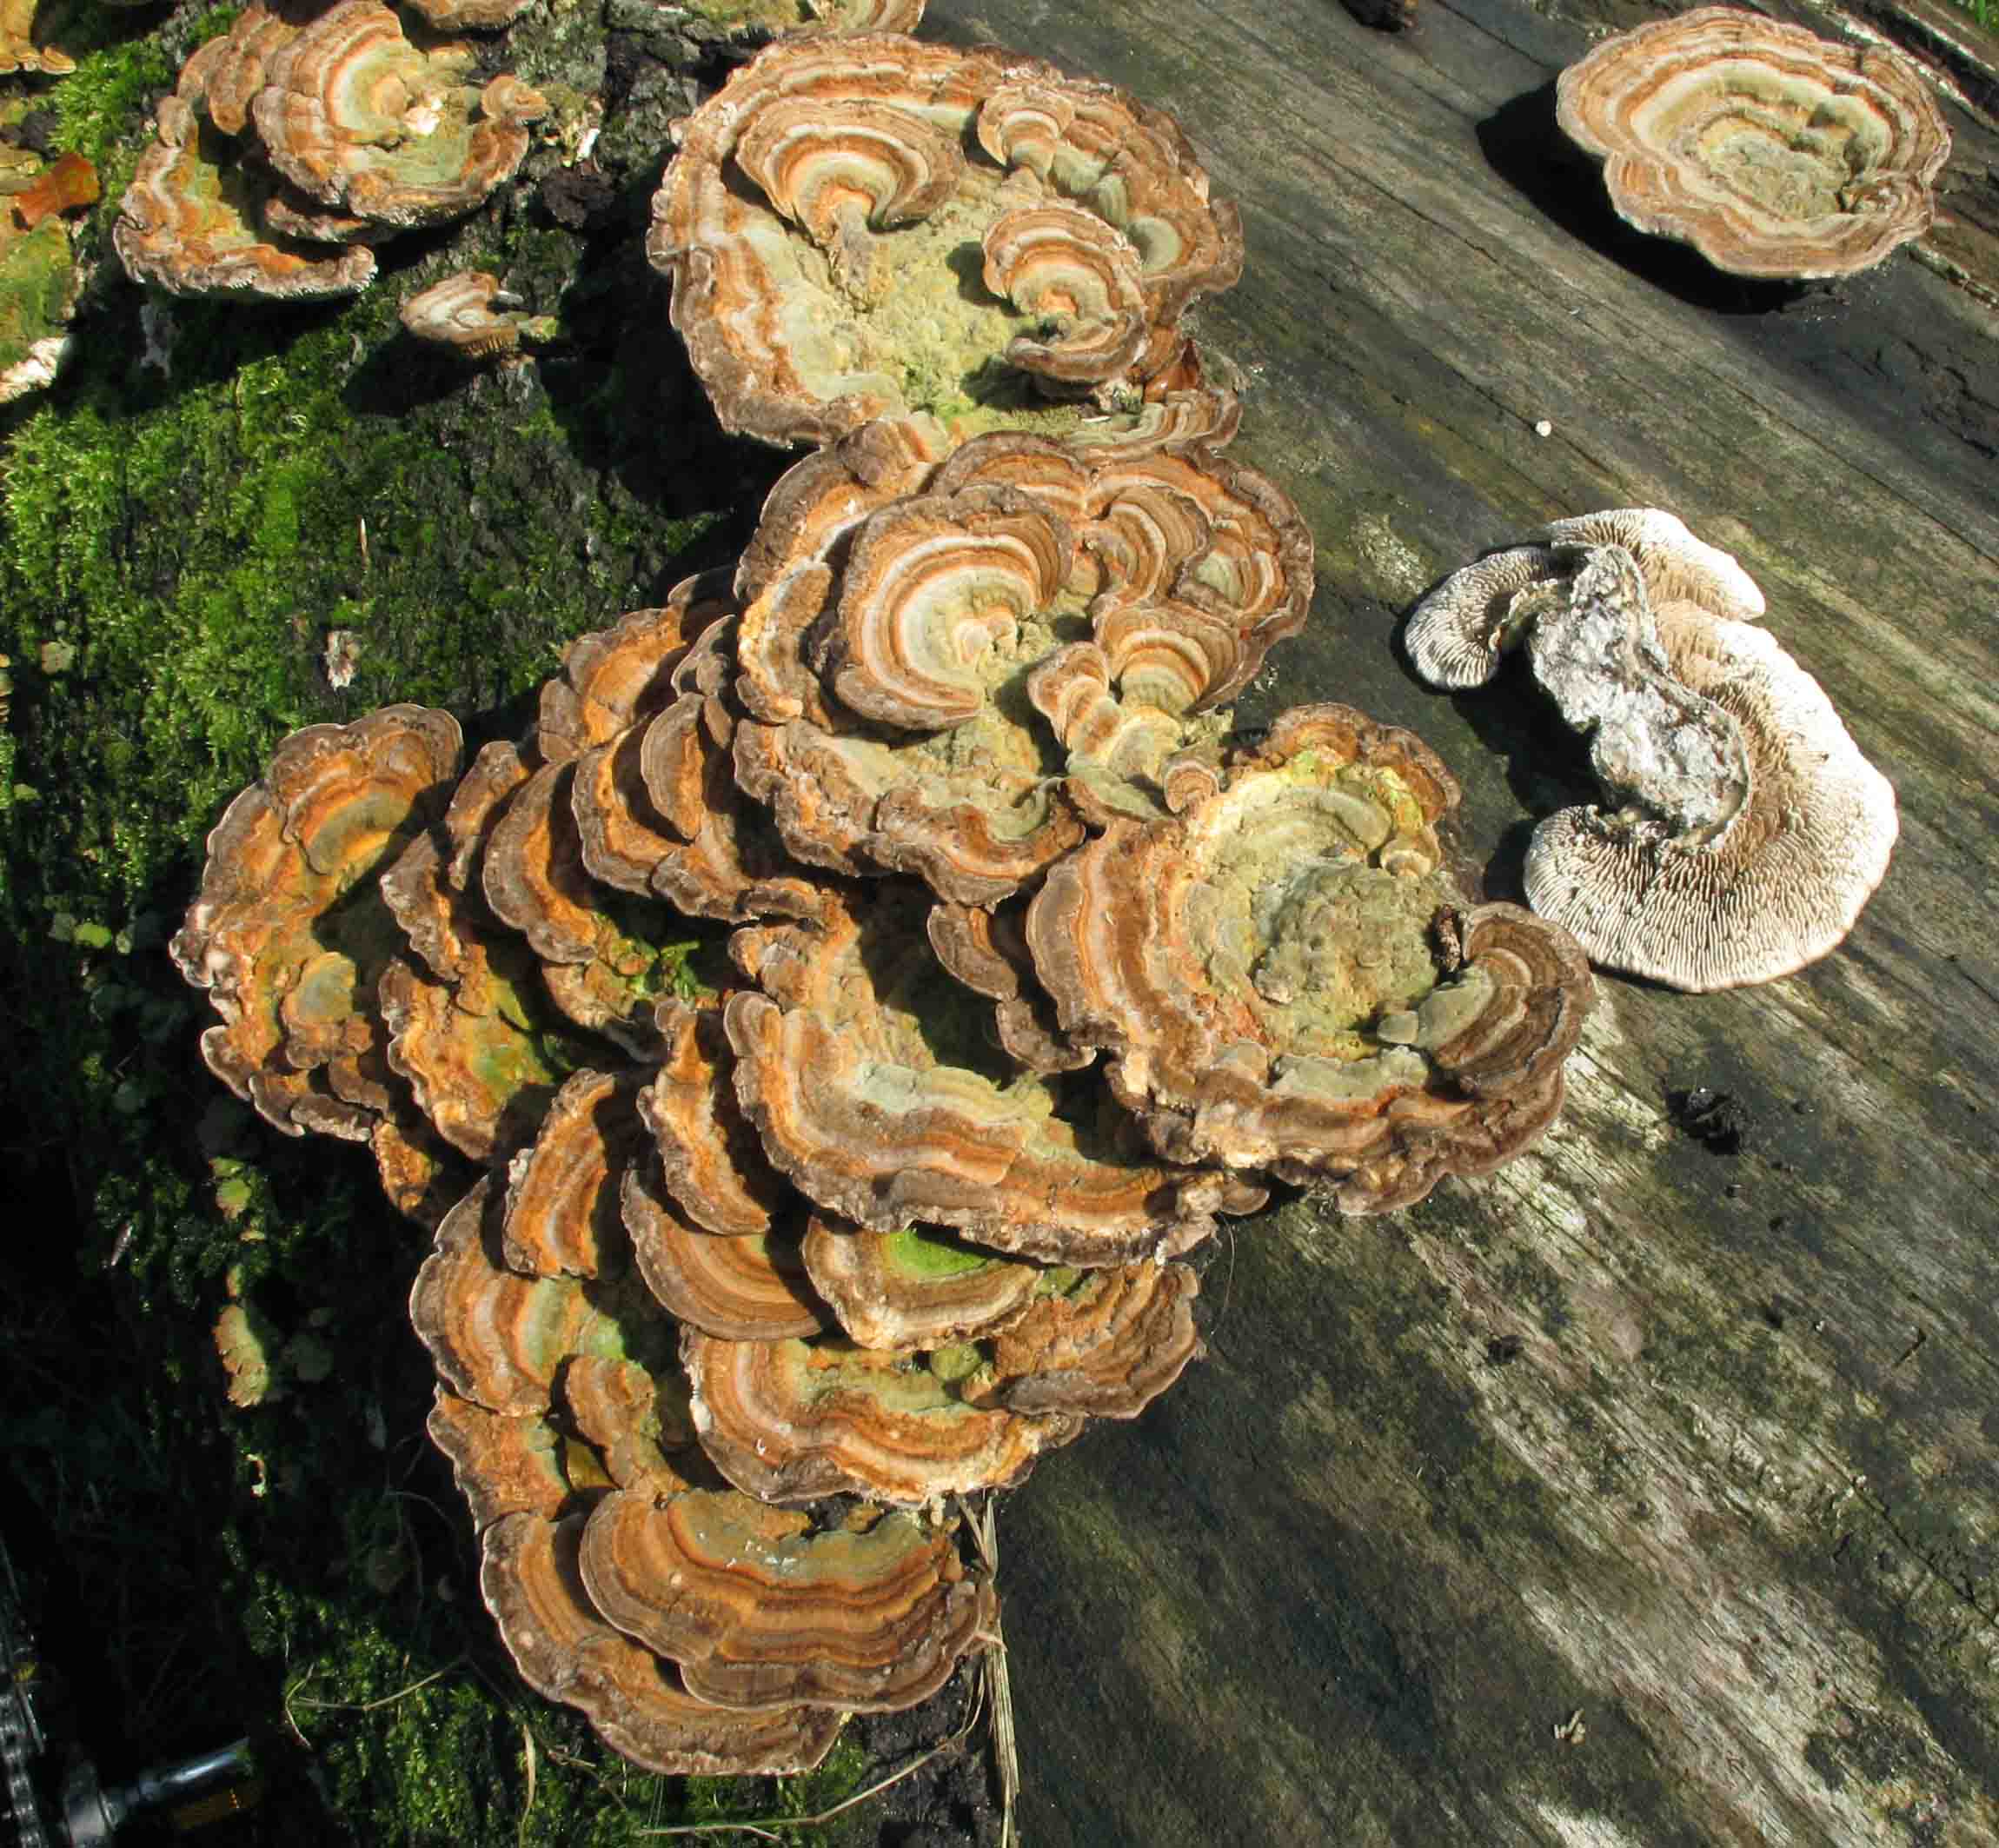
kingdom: Fungi
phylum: Basidiomycota
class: Agaricomycetes
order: Polyporales
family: Polyporaceae
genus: Lenzites
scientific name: Lenzites betulinus
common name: birke-læderporesvamp
